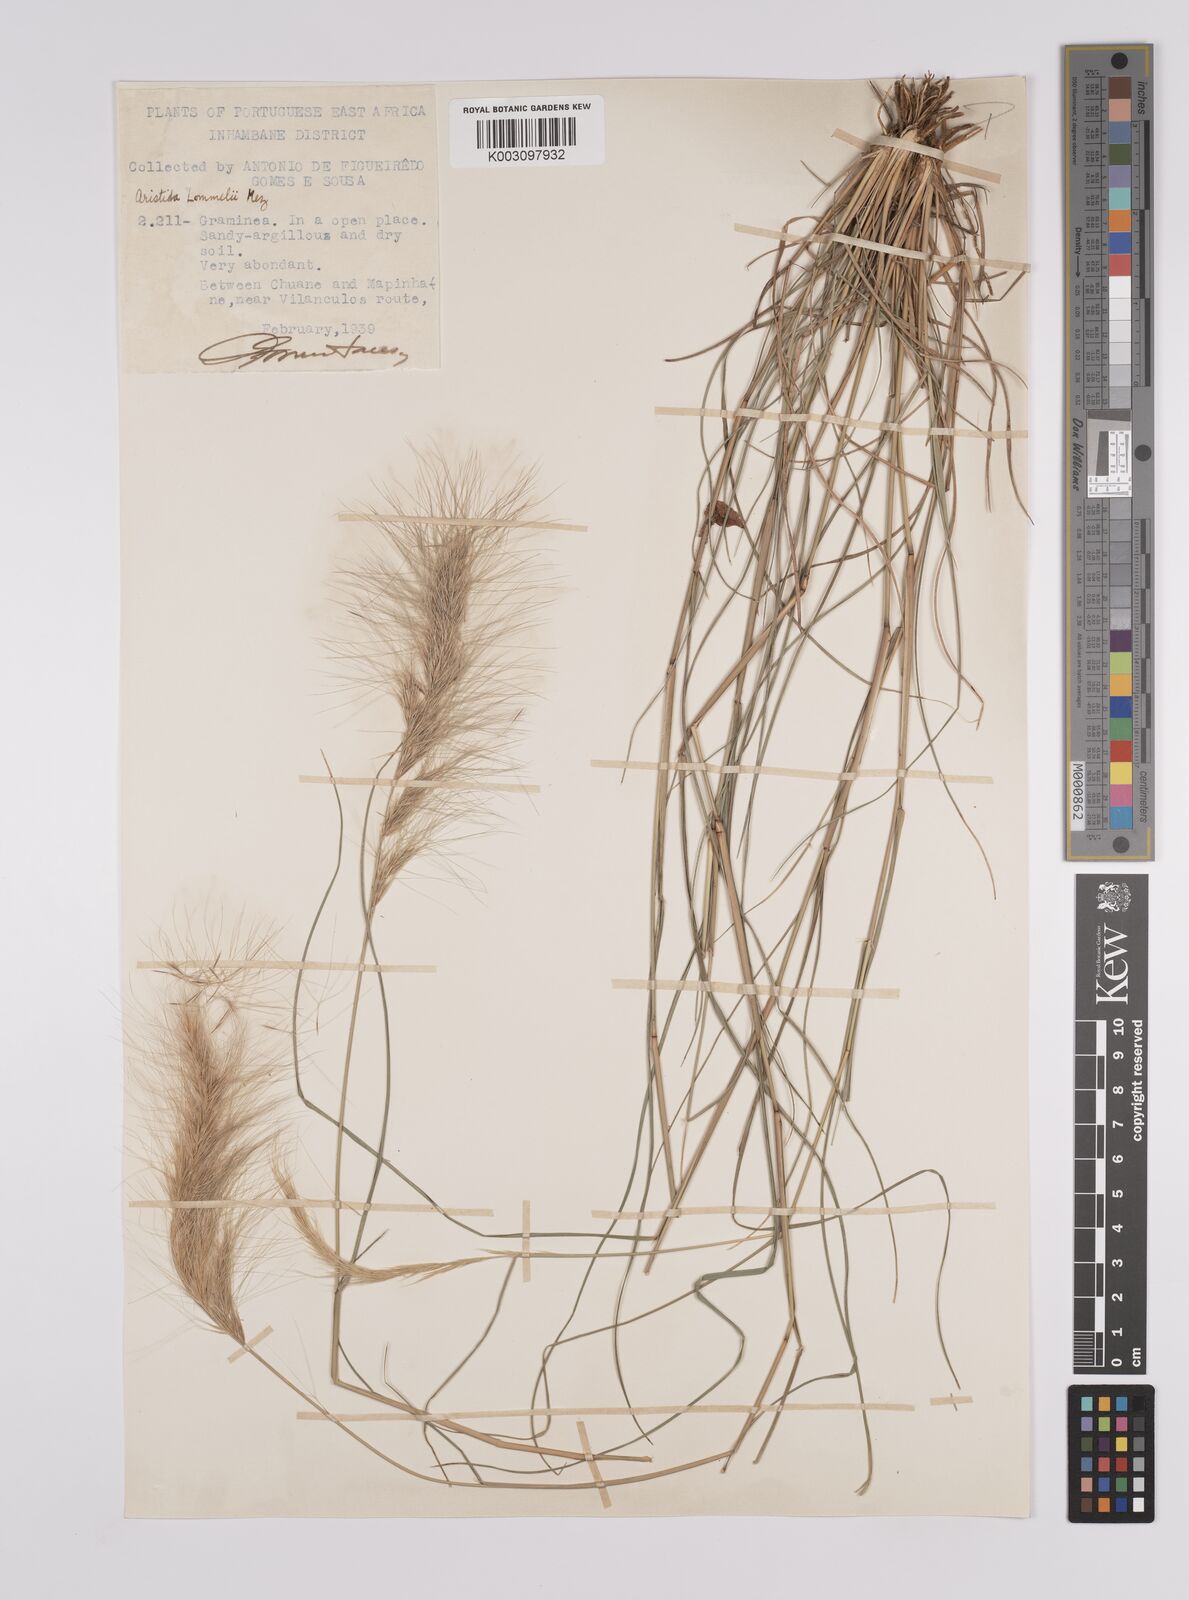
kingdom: Plantae
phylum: Tracheophyta
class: Liliopsida
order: Poales
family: Poaceae
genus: Aristida
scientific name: Aristida congesta
